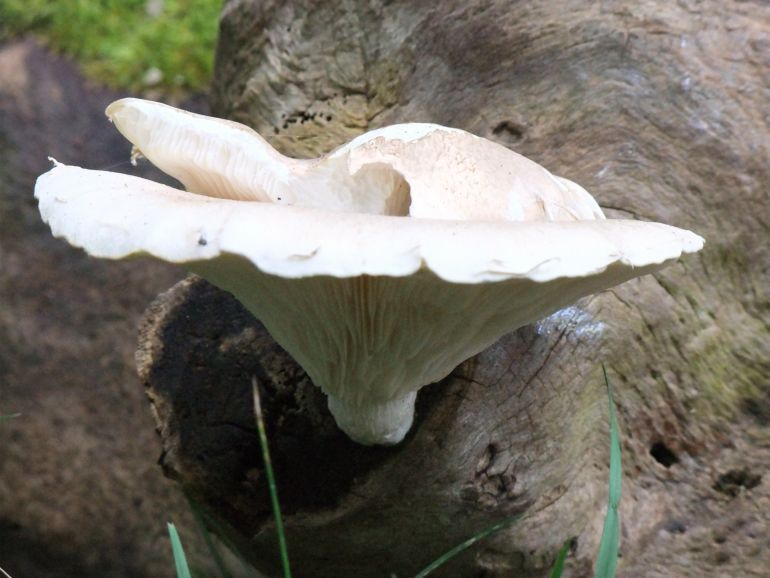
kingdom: Fungi
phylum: Basidiomycota
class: Agaricomycetes
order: Agaricales
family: Pleurotaceae
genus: Pleurotus
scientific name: Pleurotus dryinus
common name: korkagtig østershat
